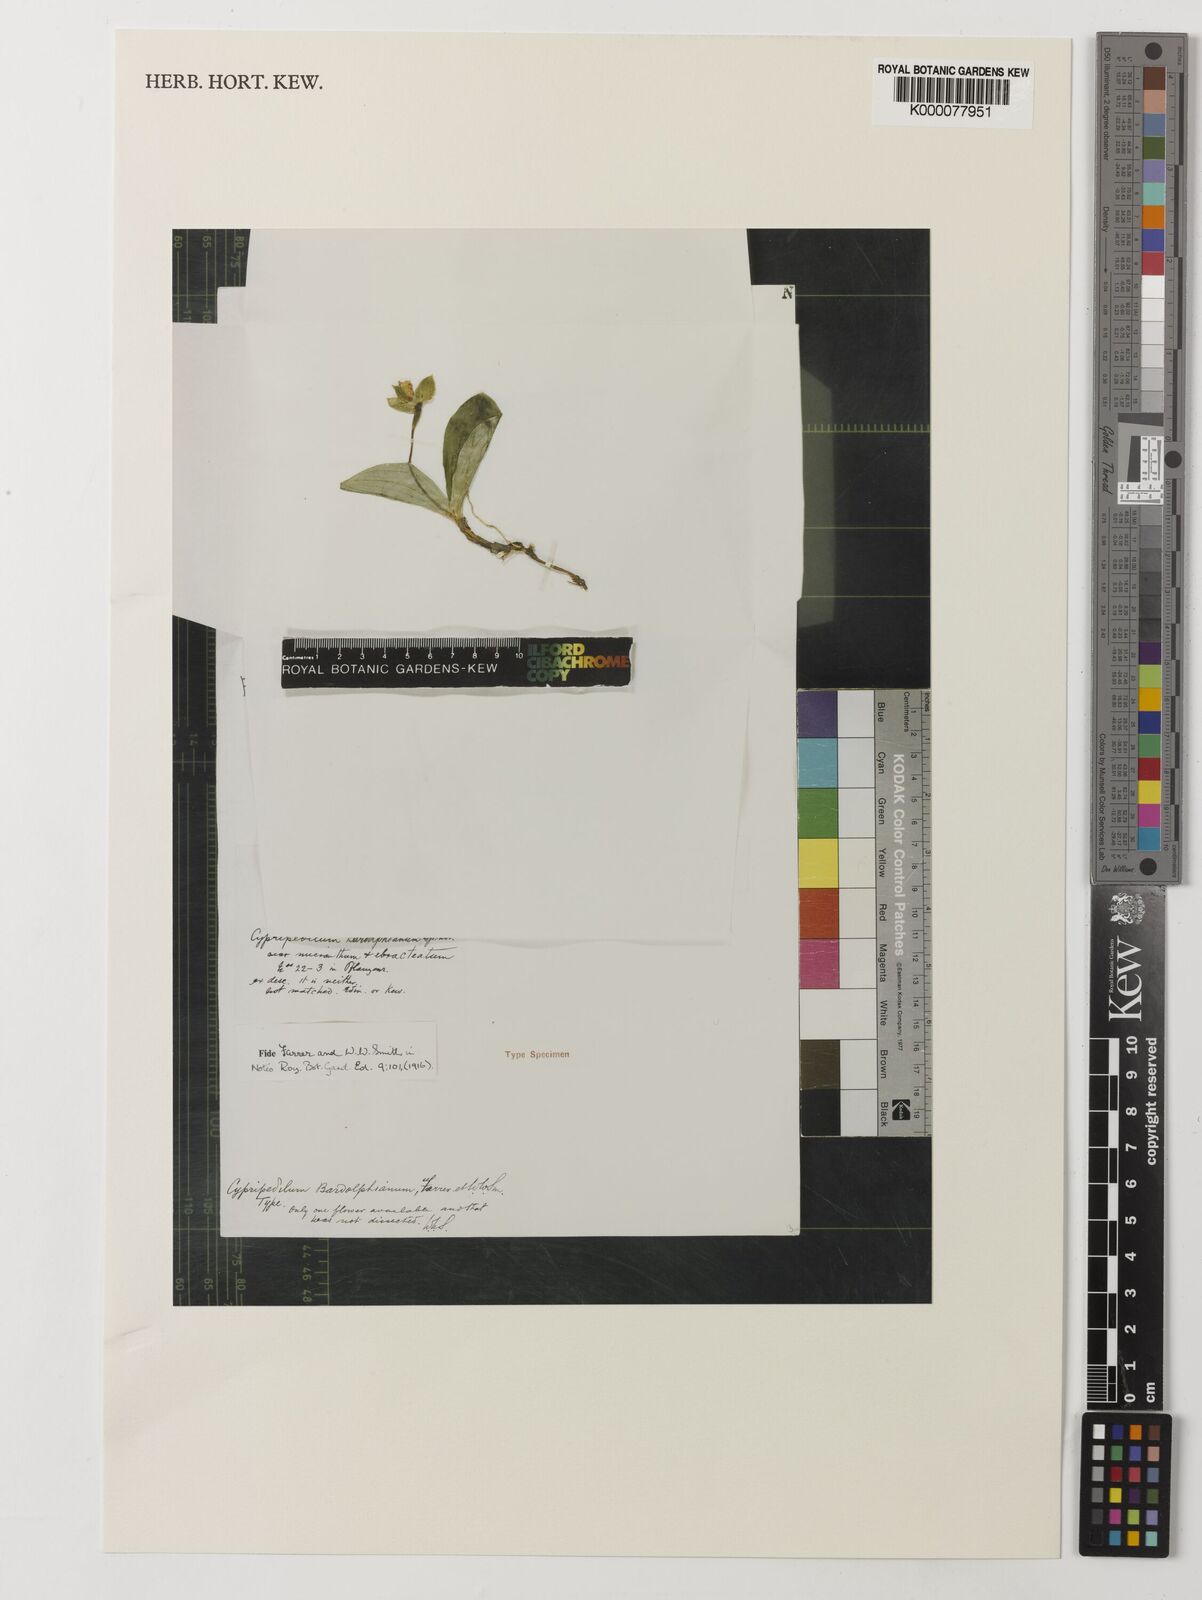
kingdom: Plantae
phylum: Tracheophyta
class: Liliopsida
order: Asparagales
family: Orchidaceae
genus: Cypripedium
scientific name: Cypripedium bardolphianum
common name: Bardolph's cypripedium
